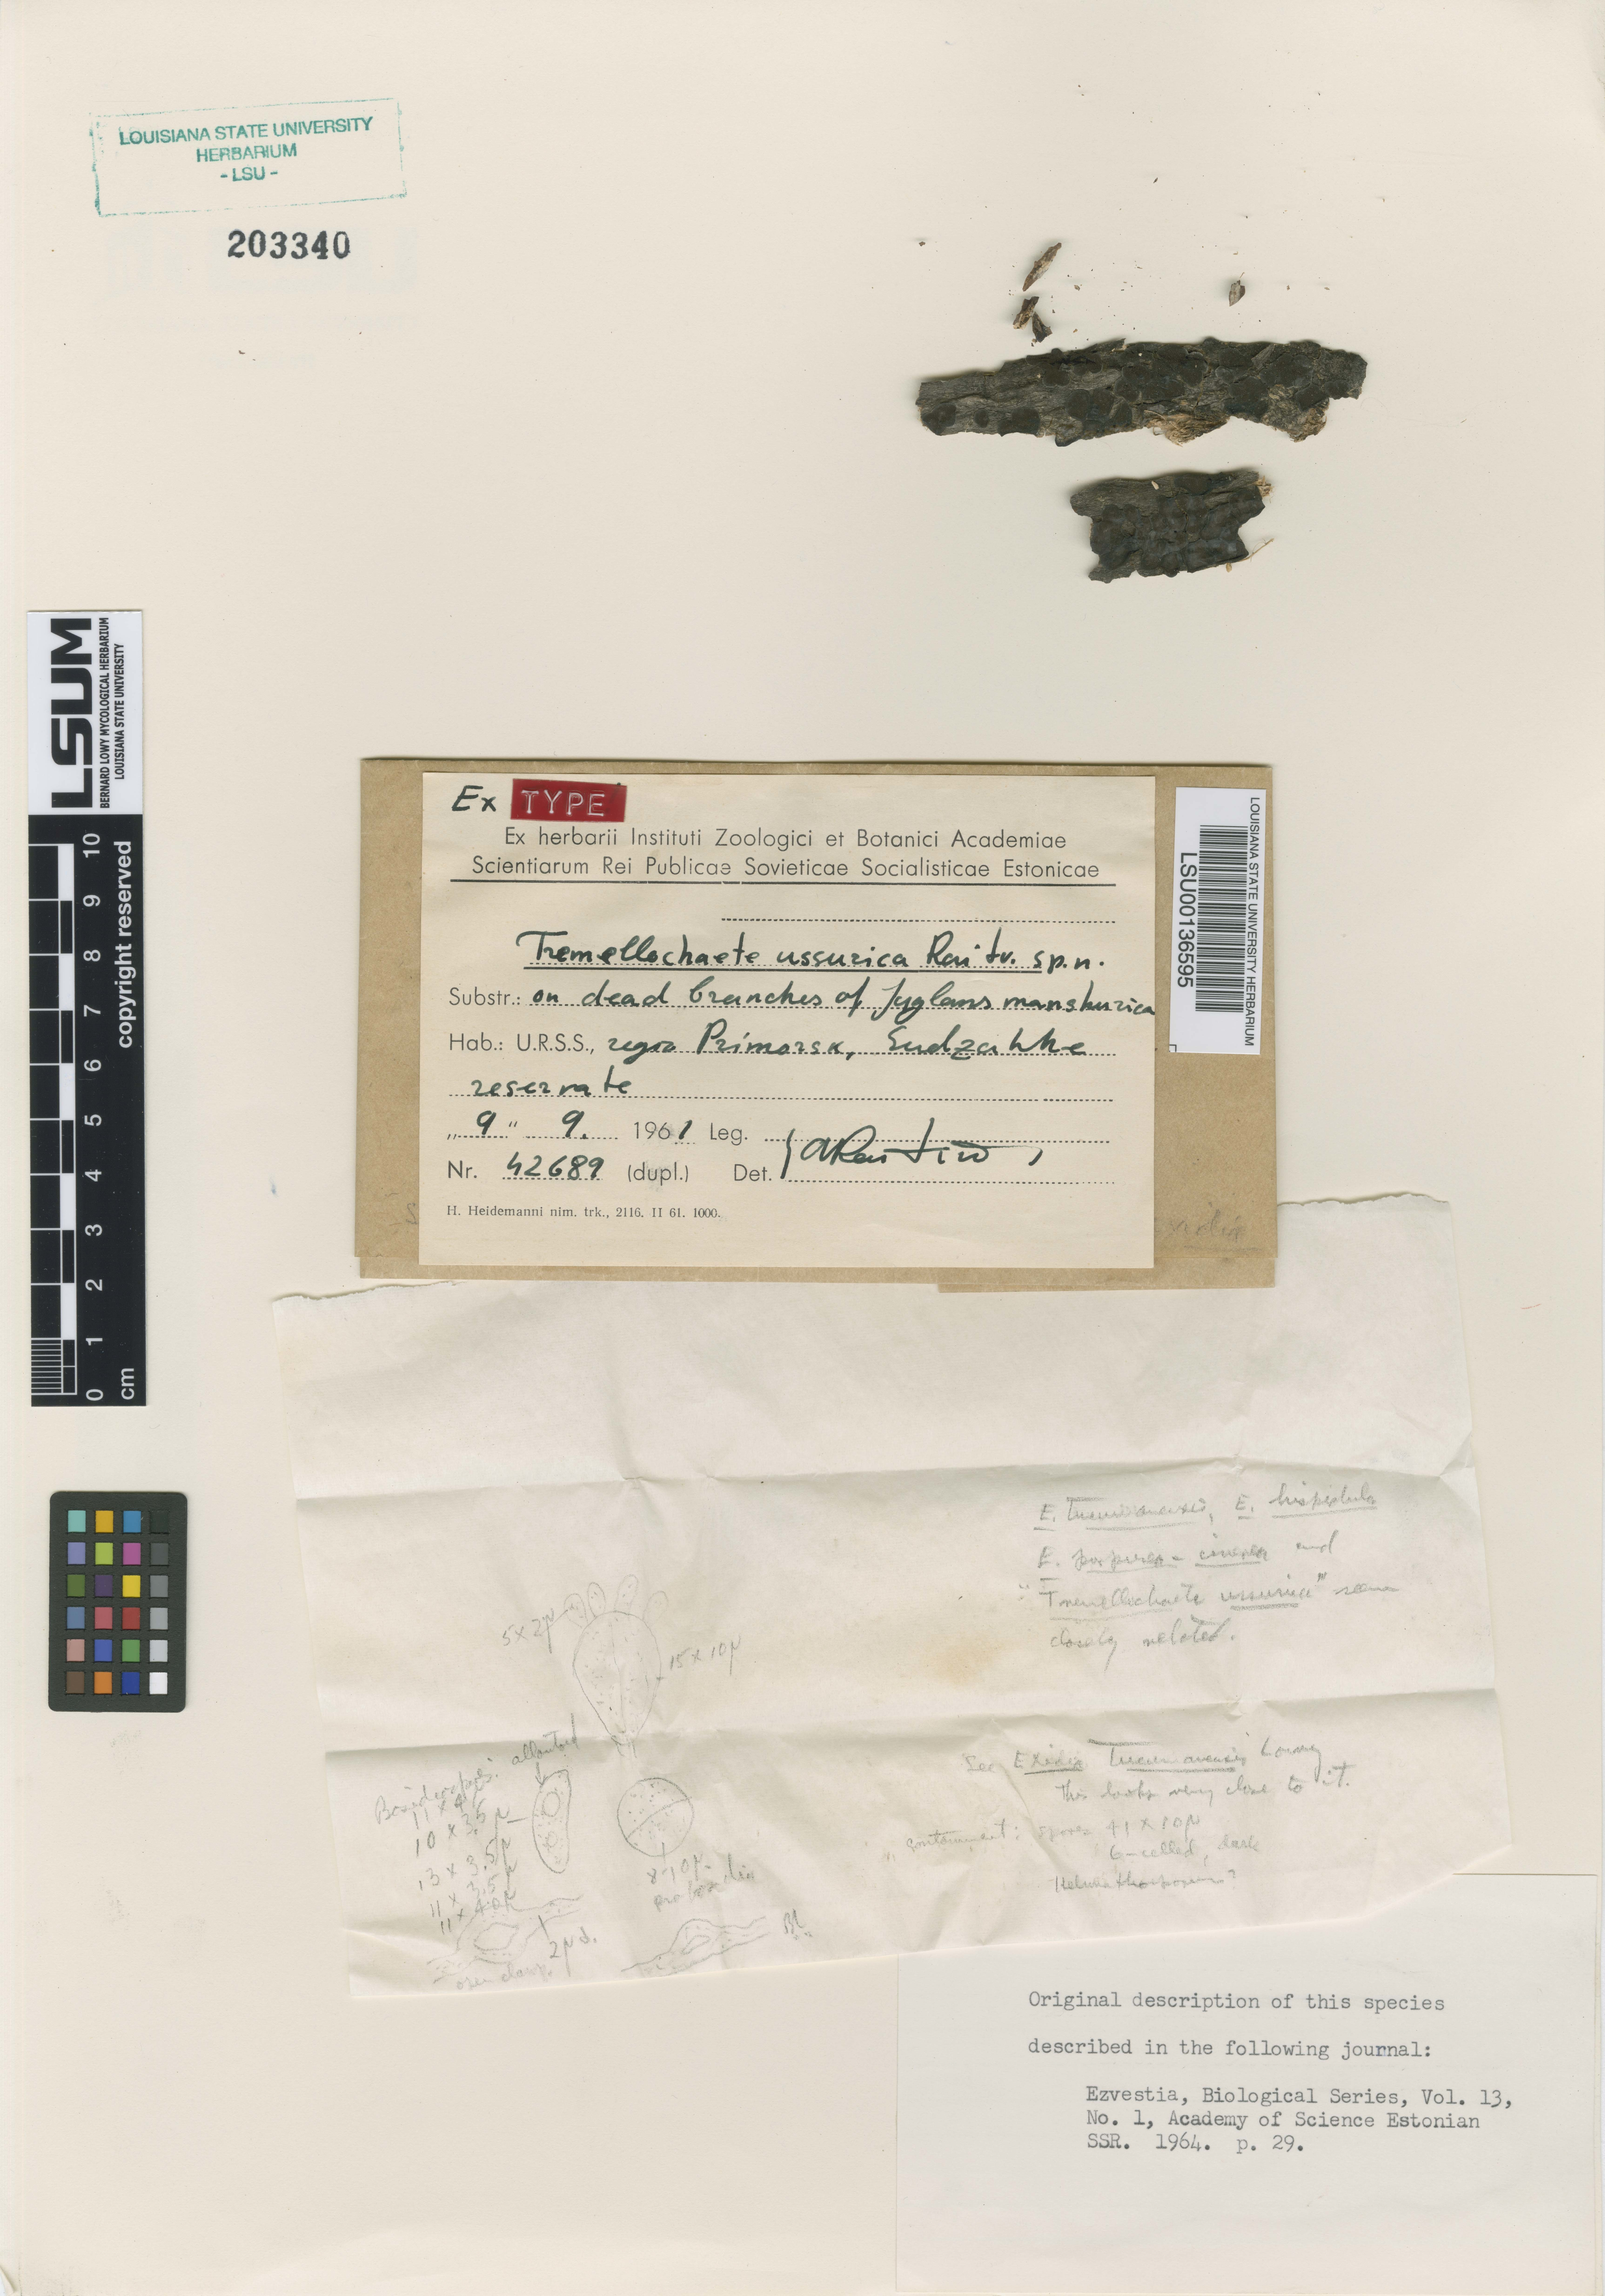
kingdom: Fungi
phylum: Basidiomycota
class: Agaricomycetes
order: Auriculariales
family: Auriculariaceae
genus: Tremellochaete
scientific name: Tremellochaete
